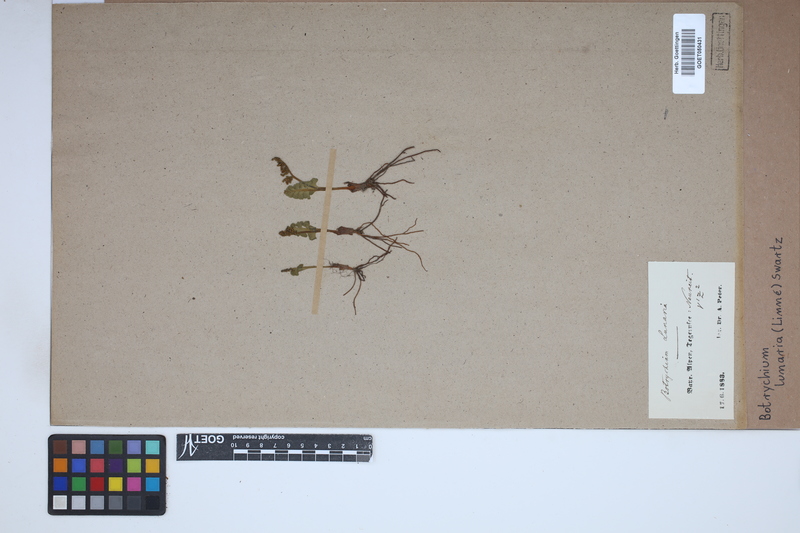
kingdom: Plantae
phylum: Tracheophyta
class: Polypodiopsida
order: Ophioglossales
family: Ophioglossaceae
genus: Botrychium
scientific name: Botrychium lunaria
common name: Moonwort
